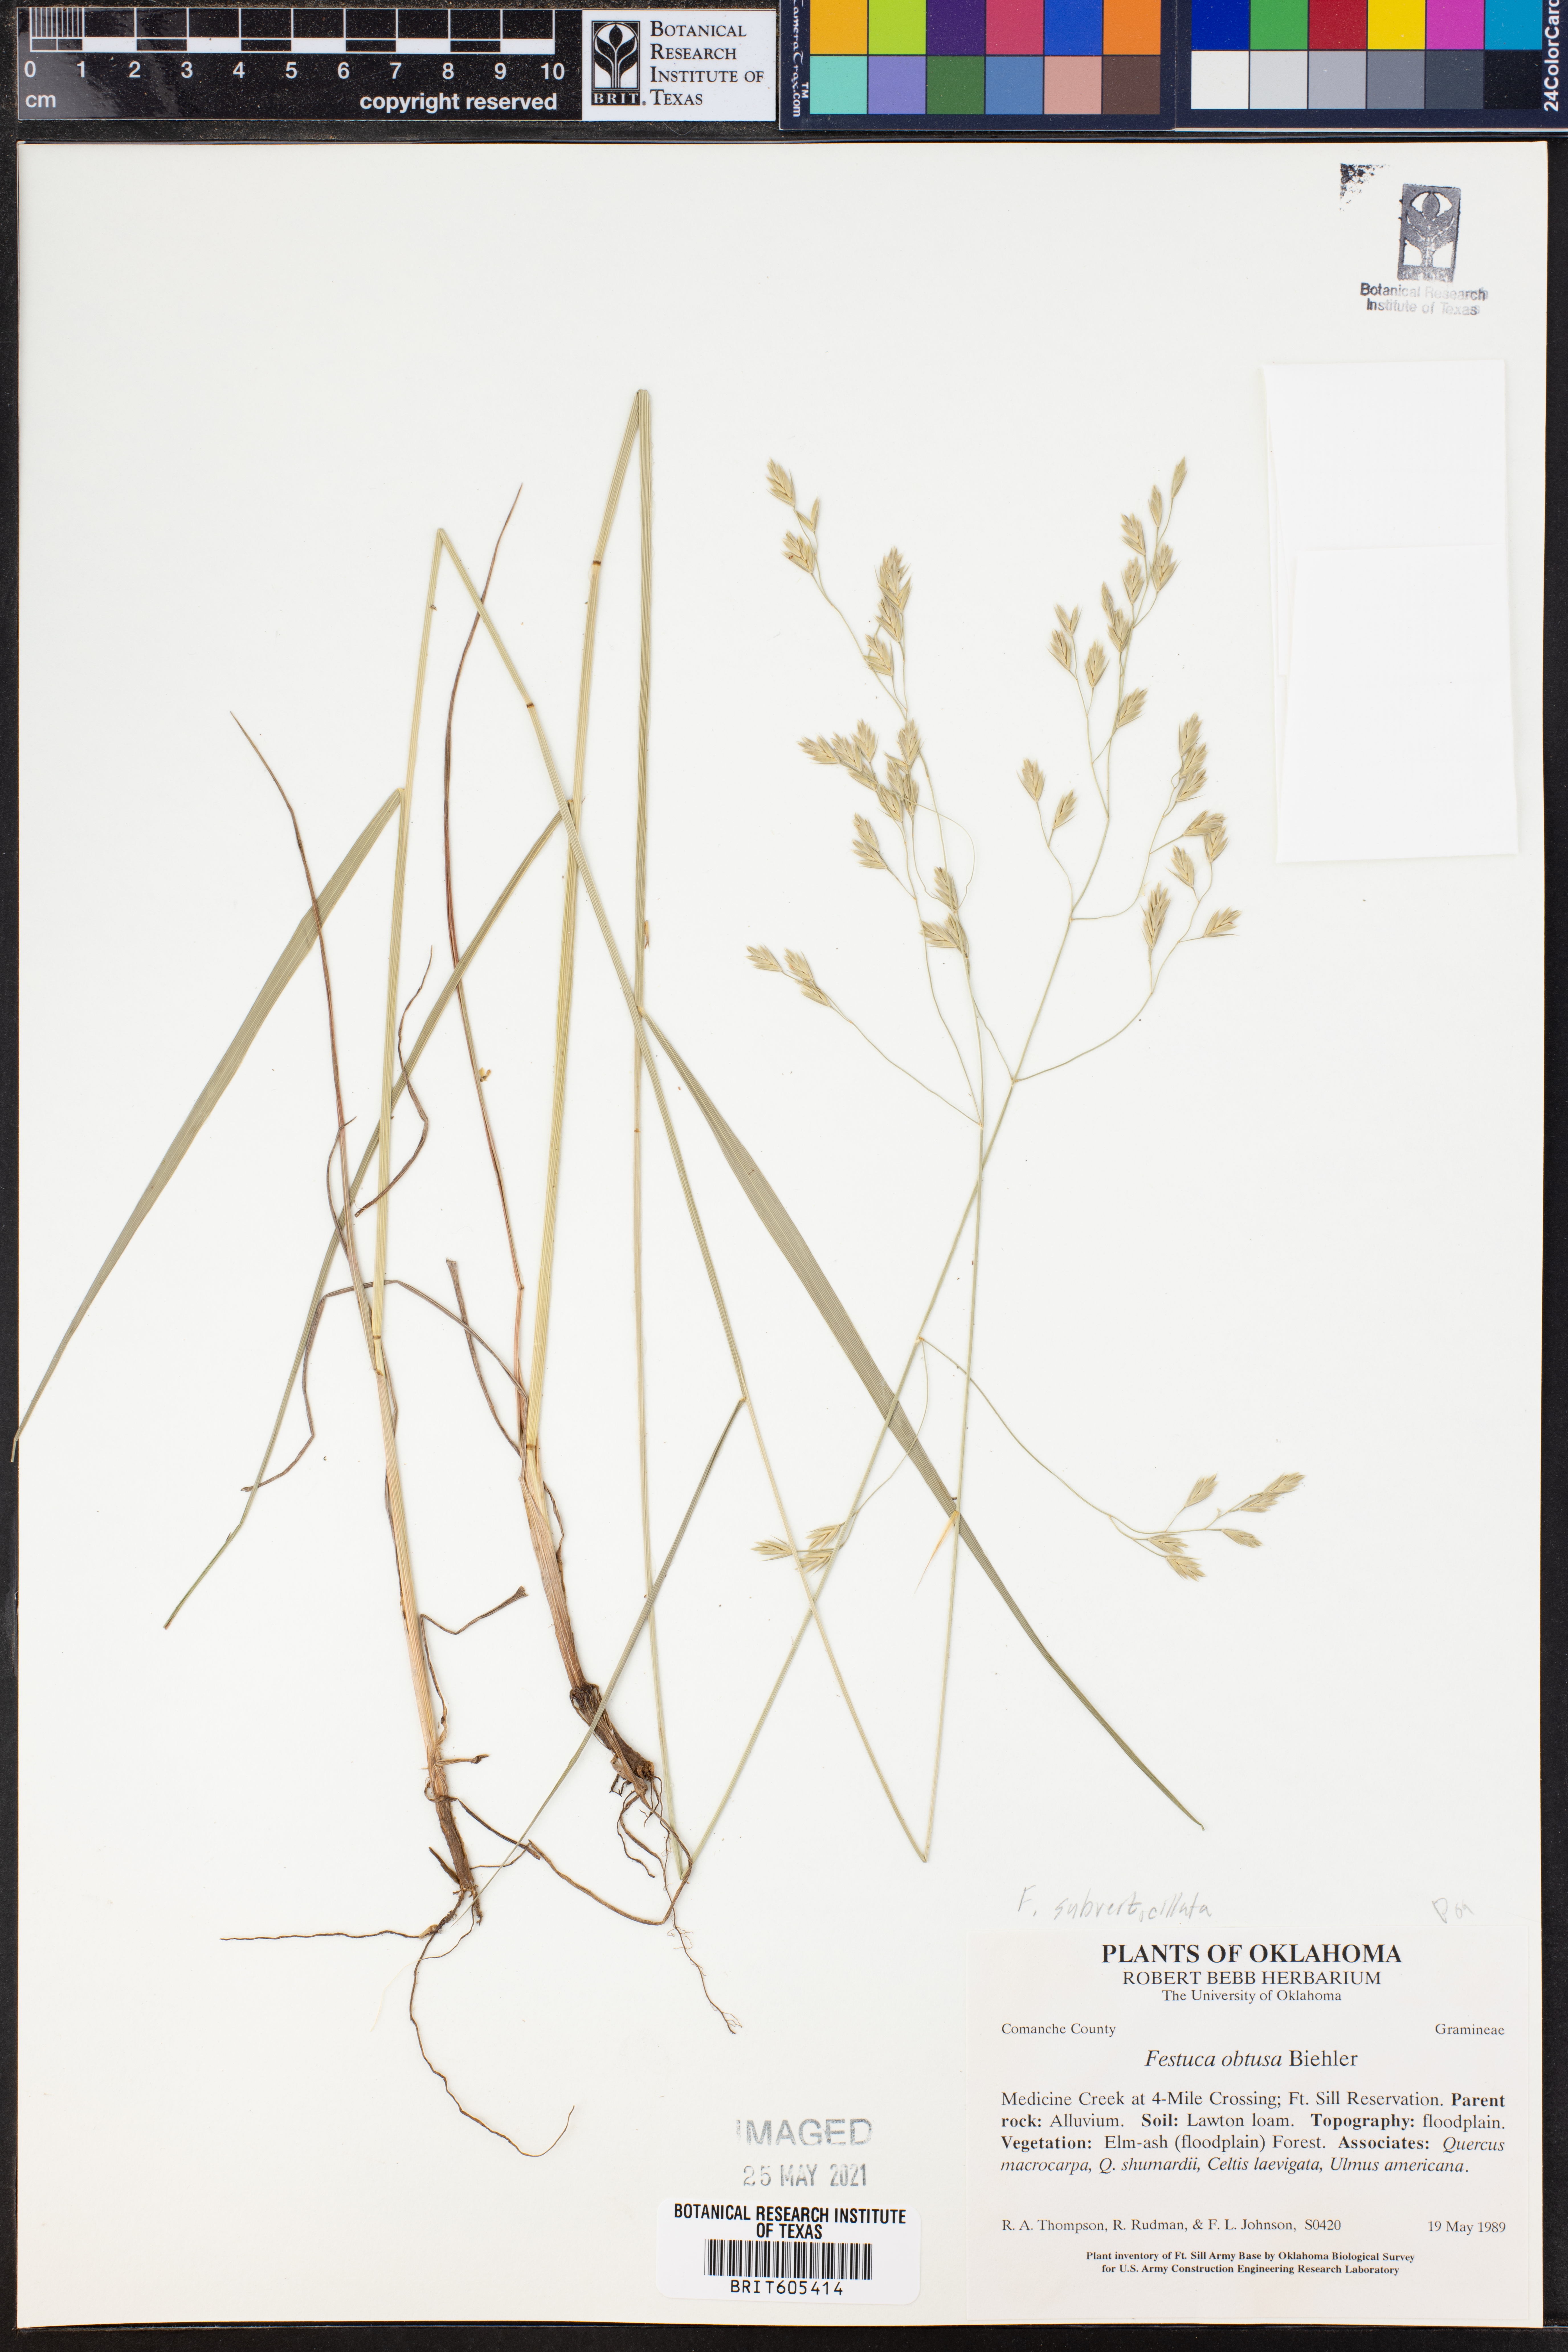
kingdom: Plantae
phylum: Tracheophyta
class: Liliopsida
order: Poales
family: Poaceae
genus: Festuca
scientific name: Festuca subverticillata
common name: Nodding fescue
